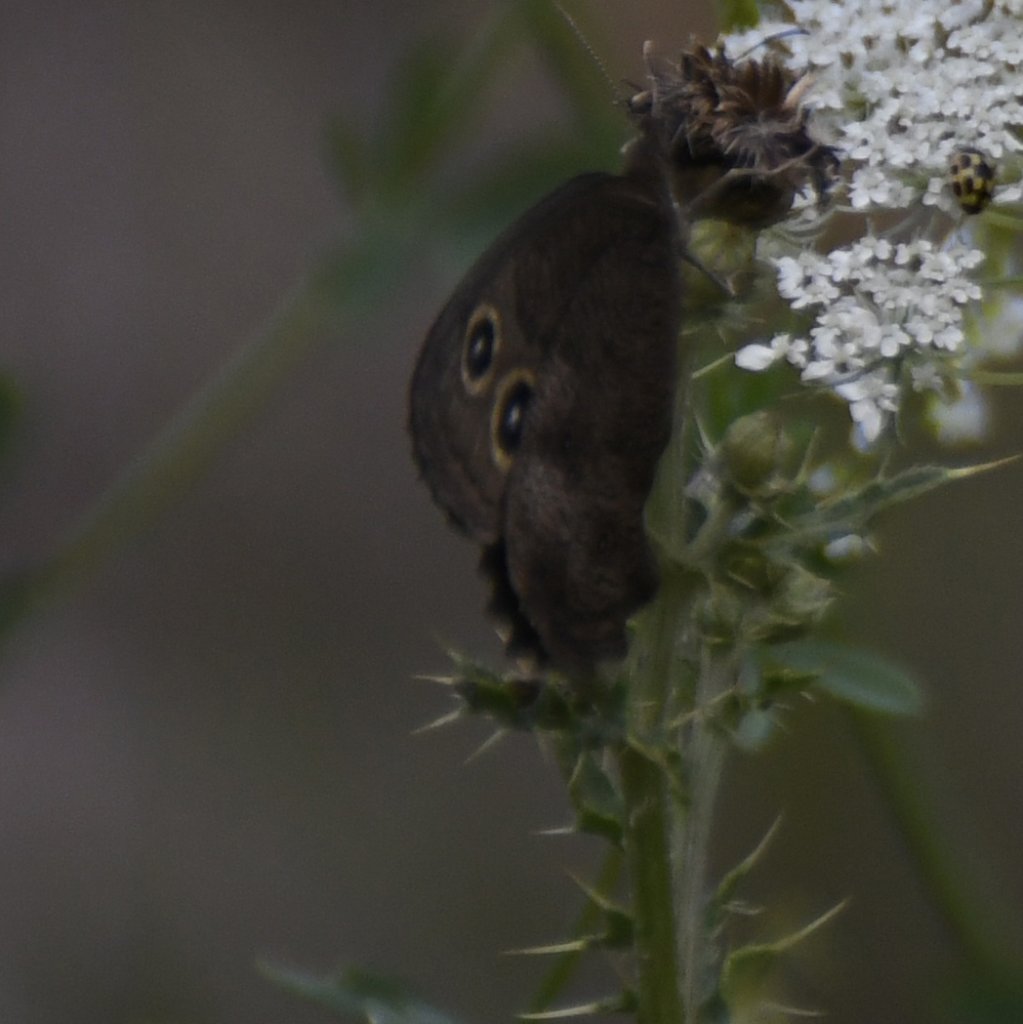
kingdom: Animalia
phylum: Arthropoda
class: Insecta
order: Lepidoptera
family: Nymphalidae
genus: Cercyonis
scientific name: Cercyonis pegala
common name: Common Wood-Nymph
